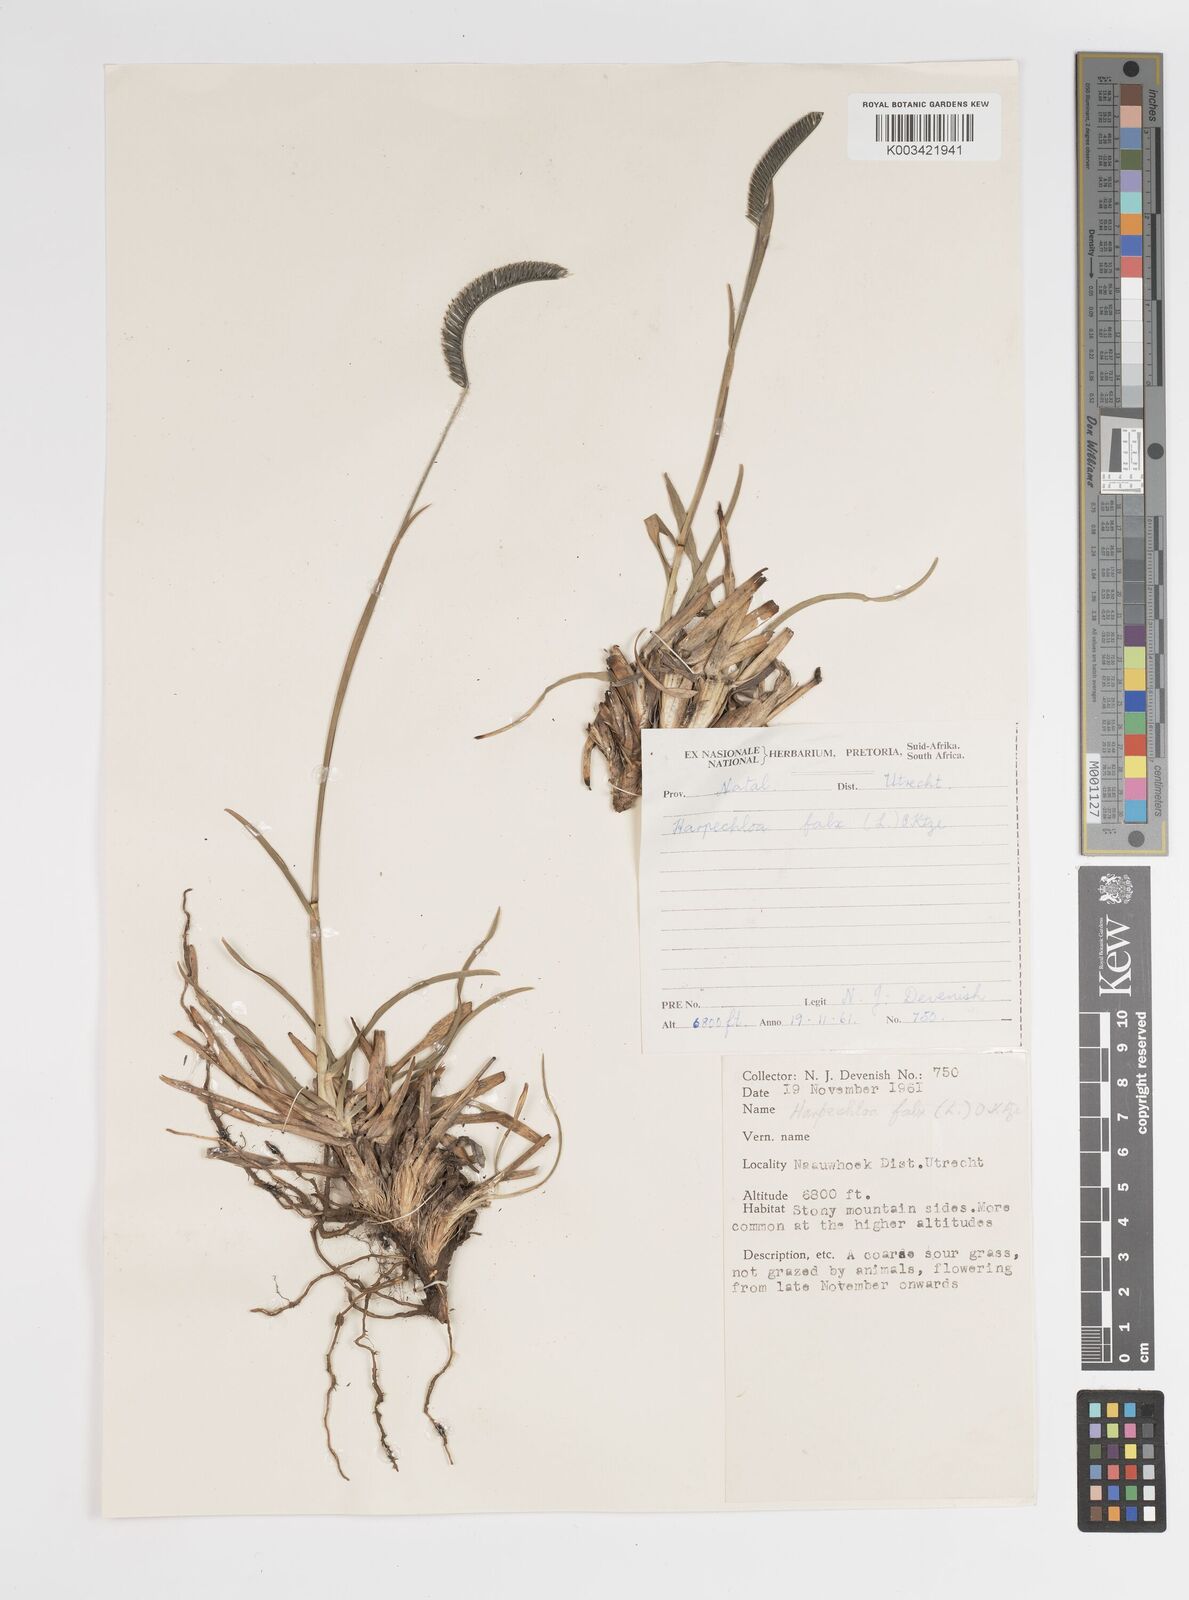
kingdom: Plantae
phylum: Tracheophyta
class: Liliopsida
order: Poales
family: Poaceae
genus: Harpochloa
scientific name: Harpochloa falx
